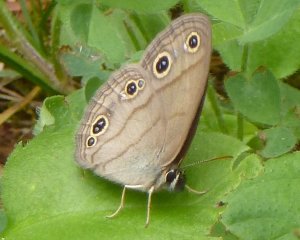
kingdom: Animalia
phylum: Arthropoda
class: Insecta
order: Lepidoptera
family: Nymphalidae
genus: Euptychia
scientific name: Euptychia cymela
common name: Little Wood Satyr
